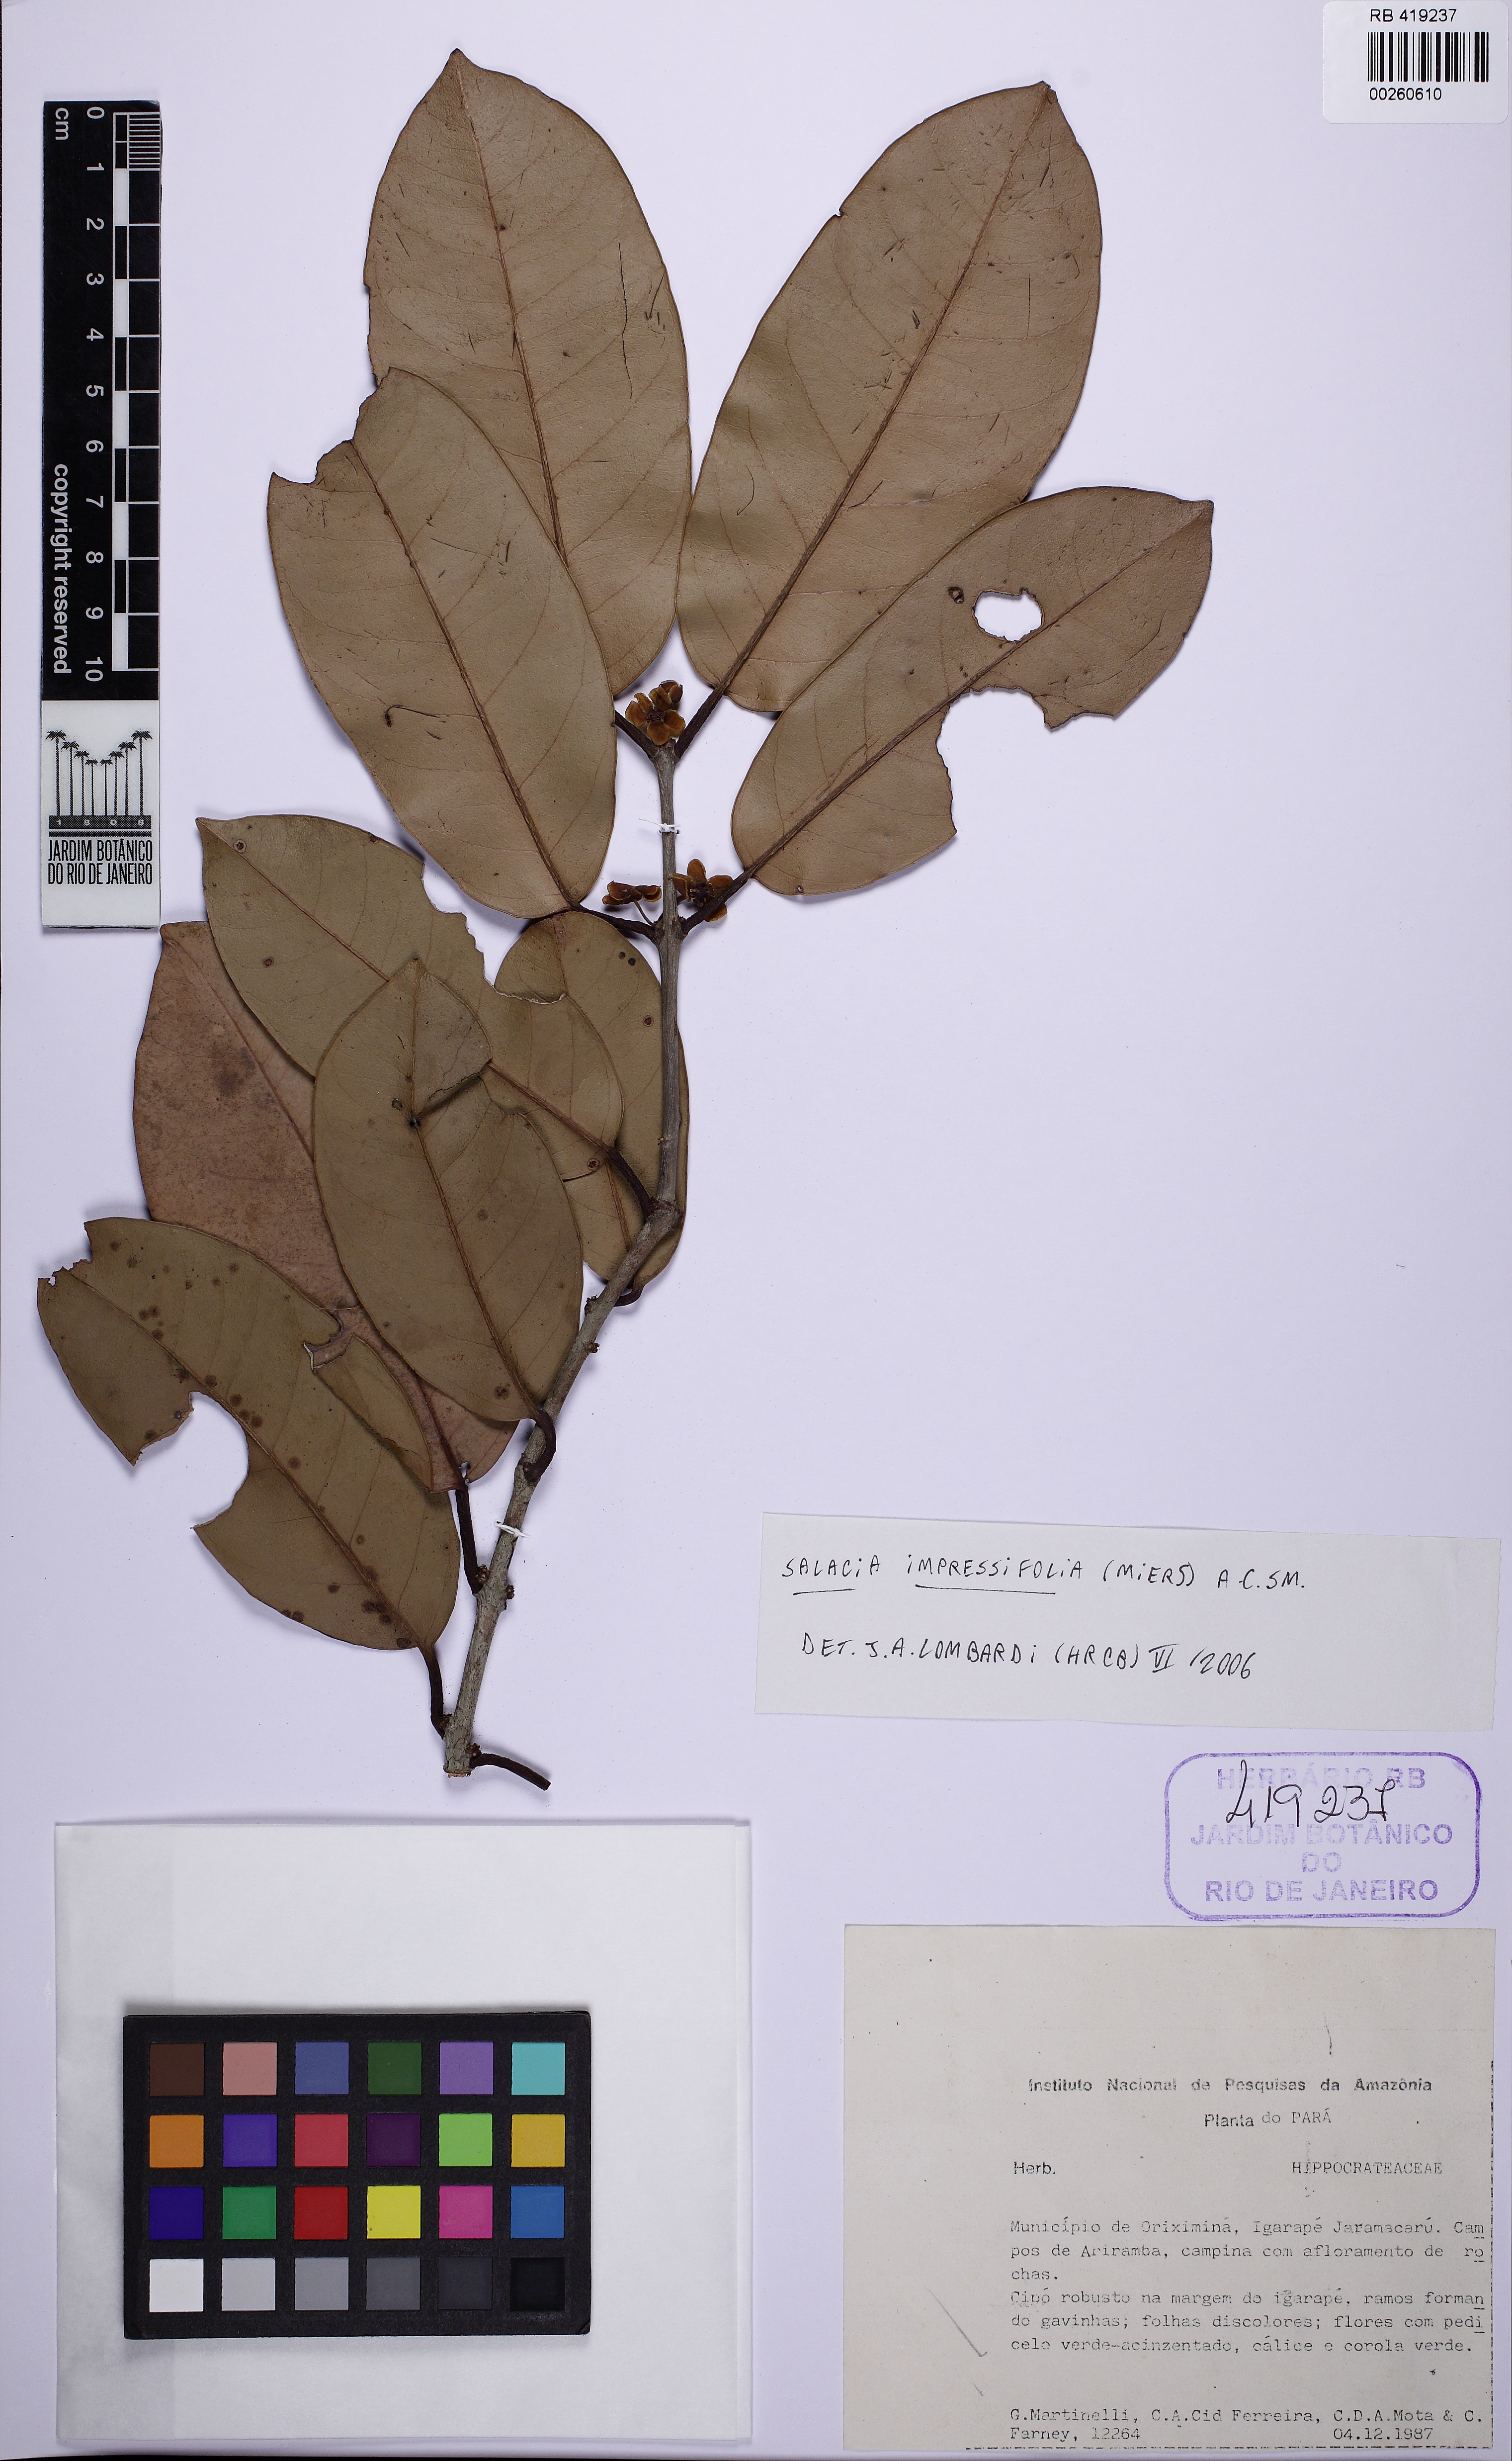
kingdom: Plantae
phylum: Tracheophyta
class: Magnoliopsida
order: Celastrales
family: Celastraceae
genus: Salacia
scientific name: Salacia impressifolia
